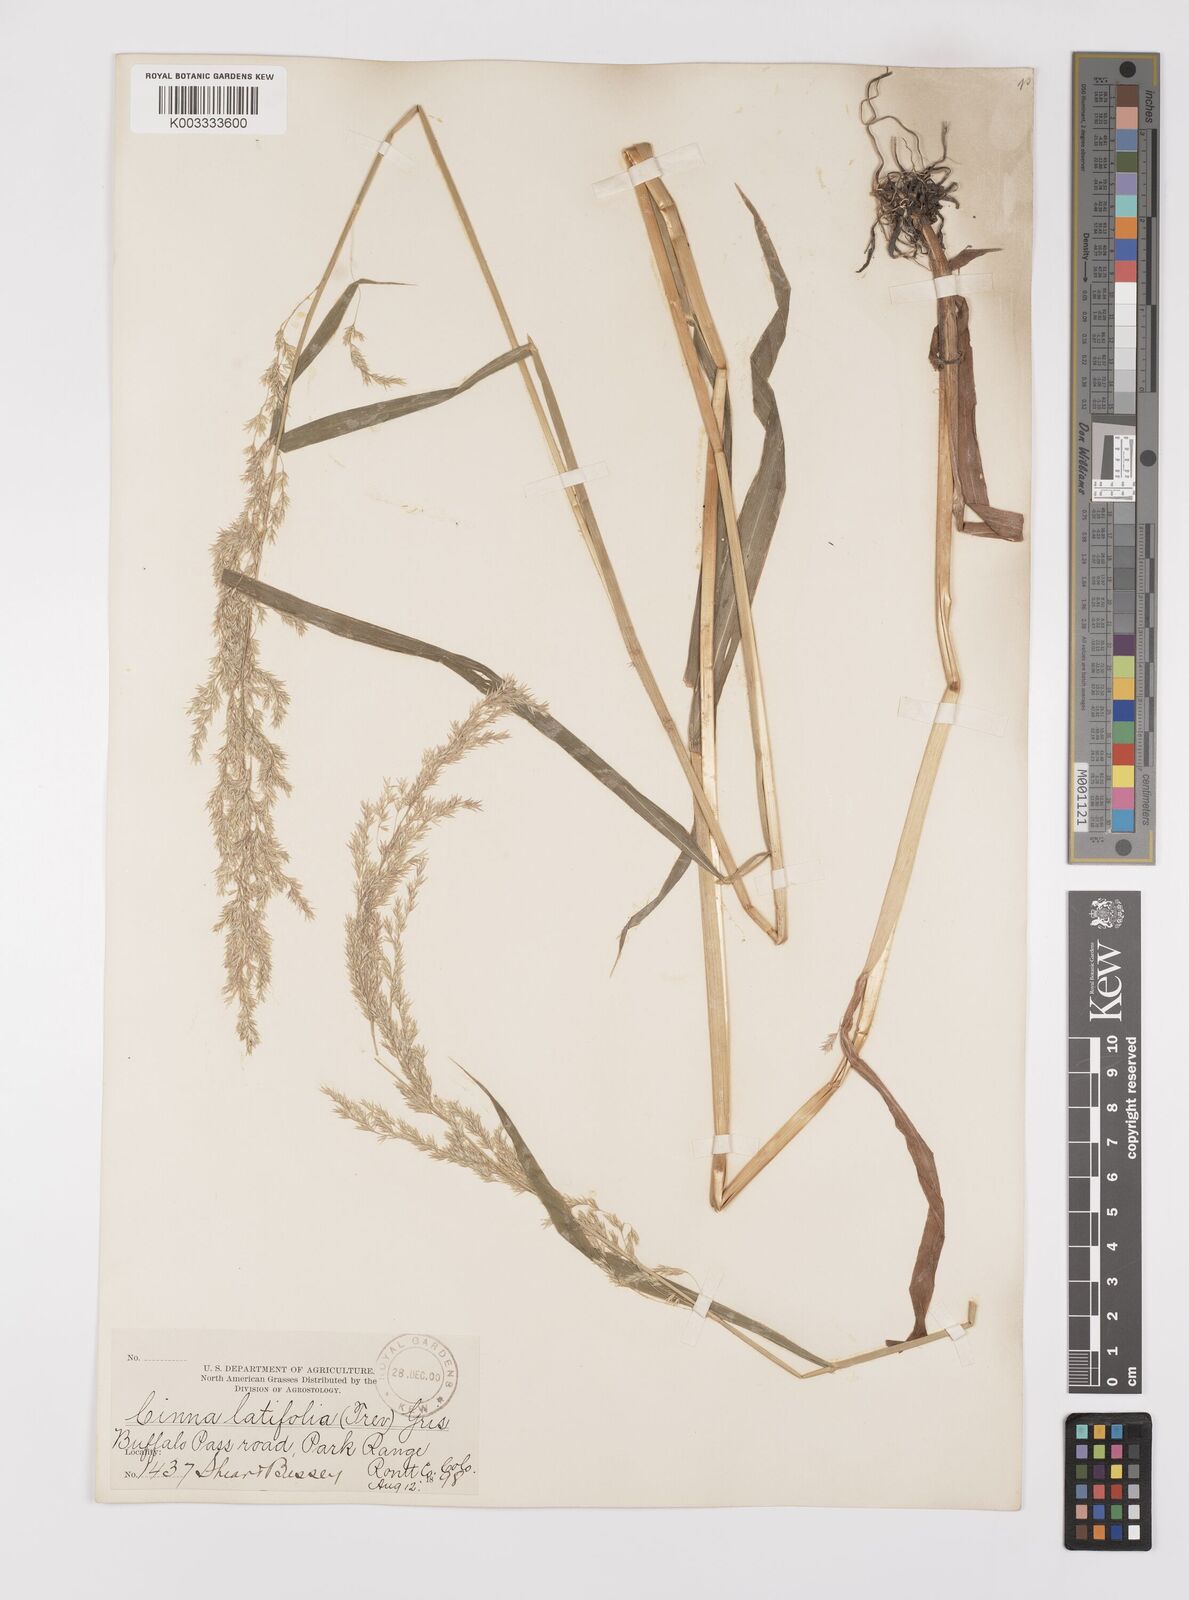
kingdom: Plantae
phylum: Tracheophyta
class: Liliopsida
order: Poales
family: Poaceae
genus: Cinna
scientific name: Cinna latifolia
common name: Drooping woodreed
